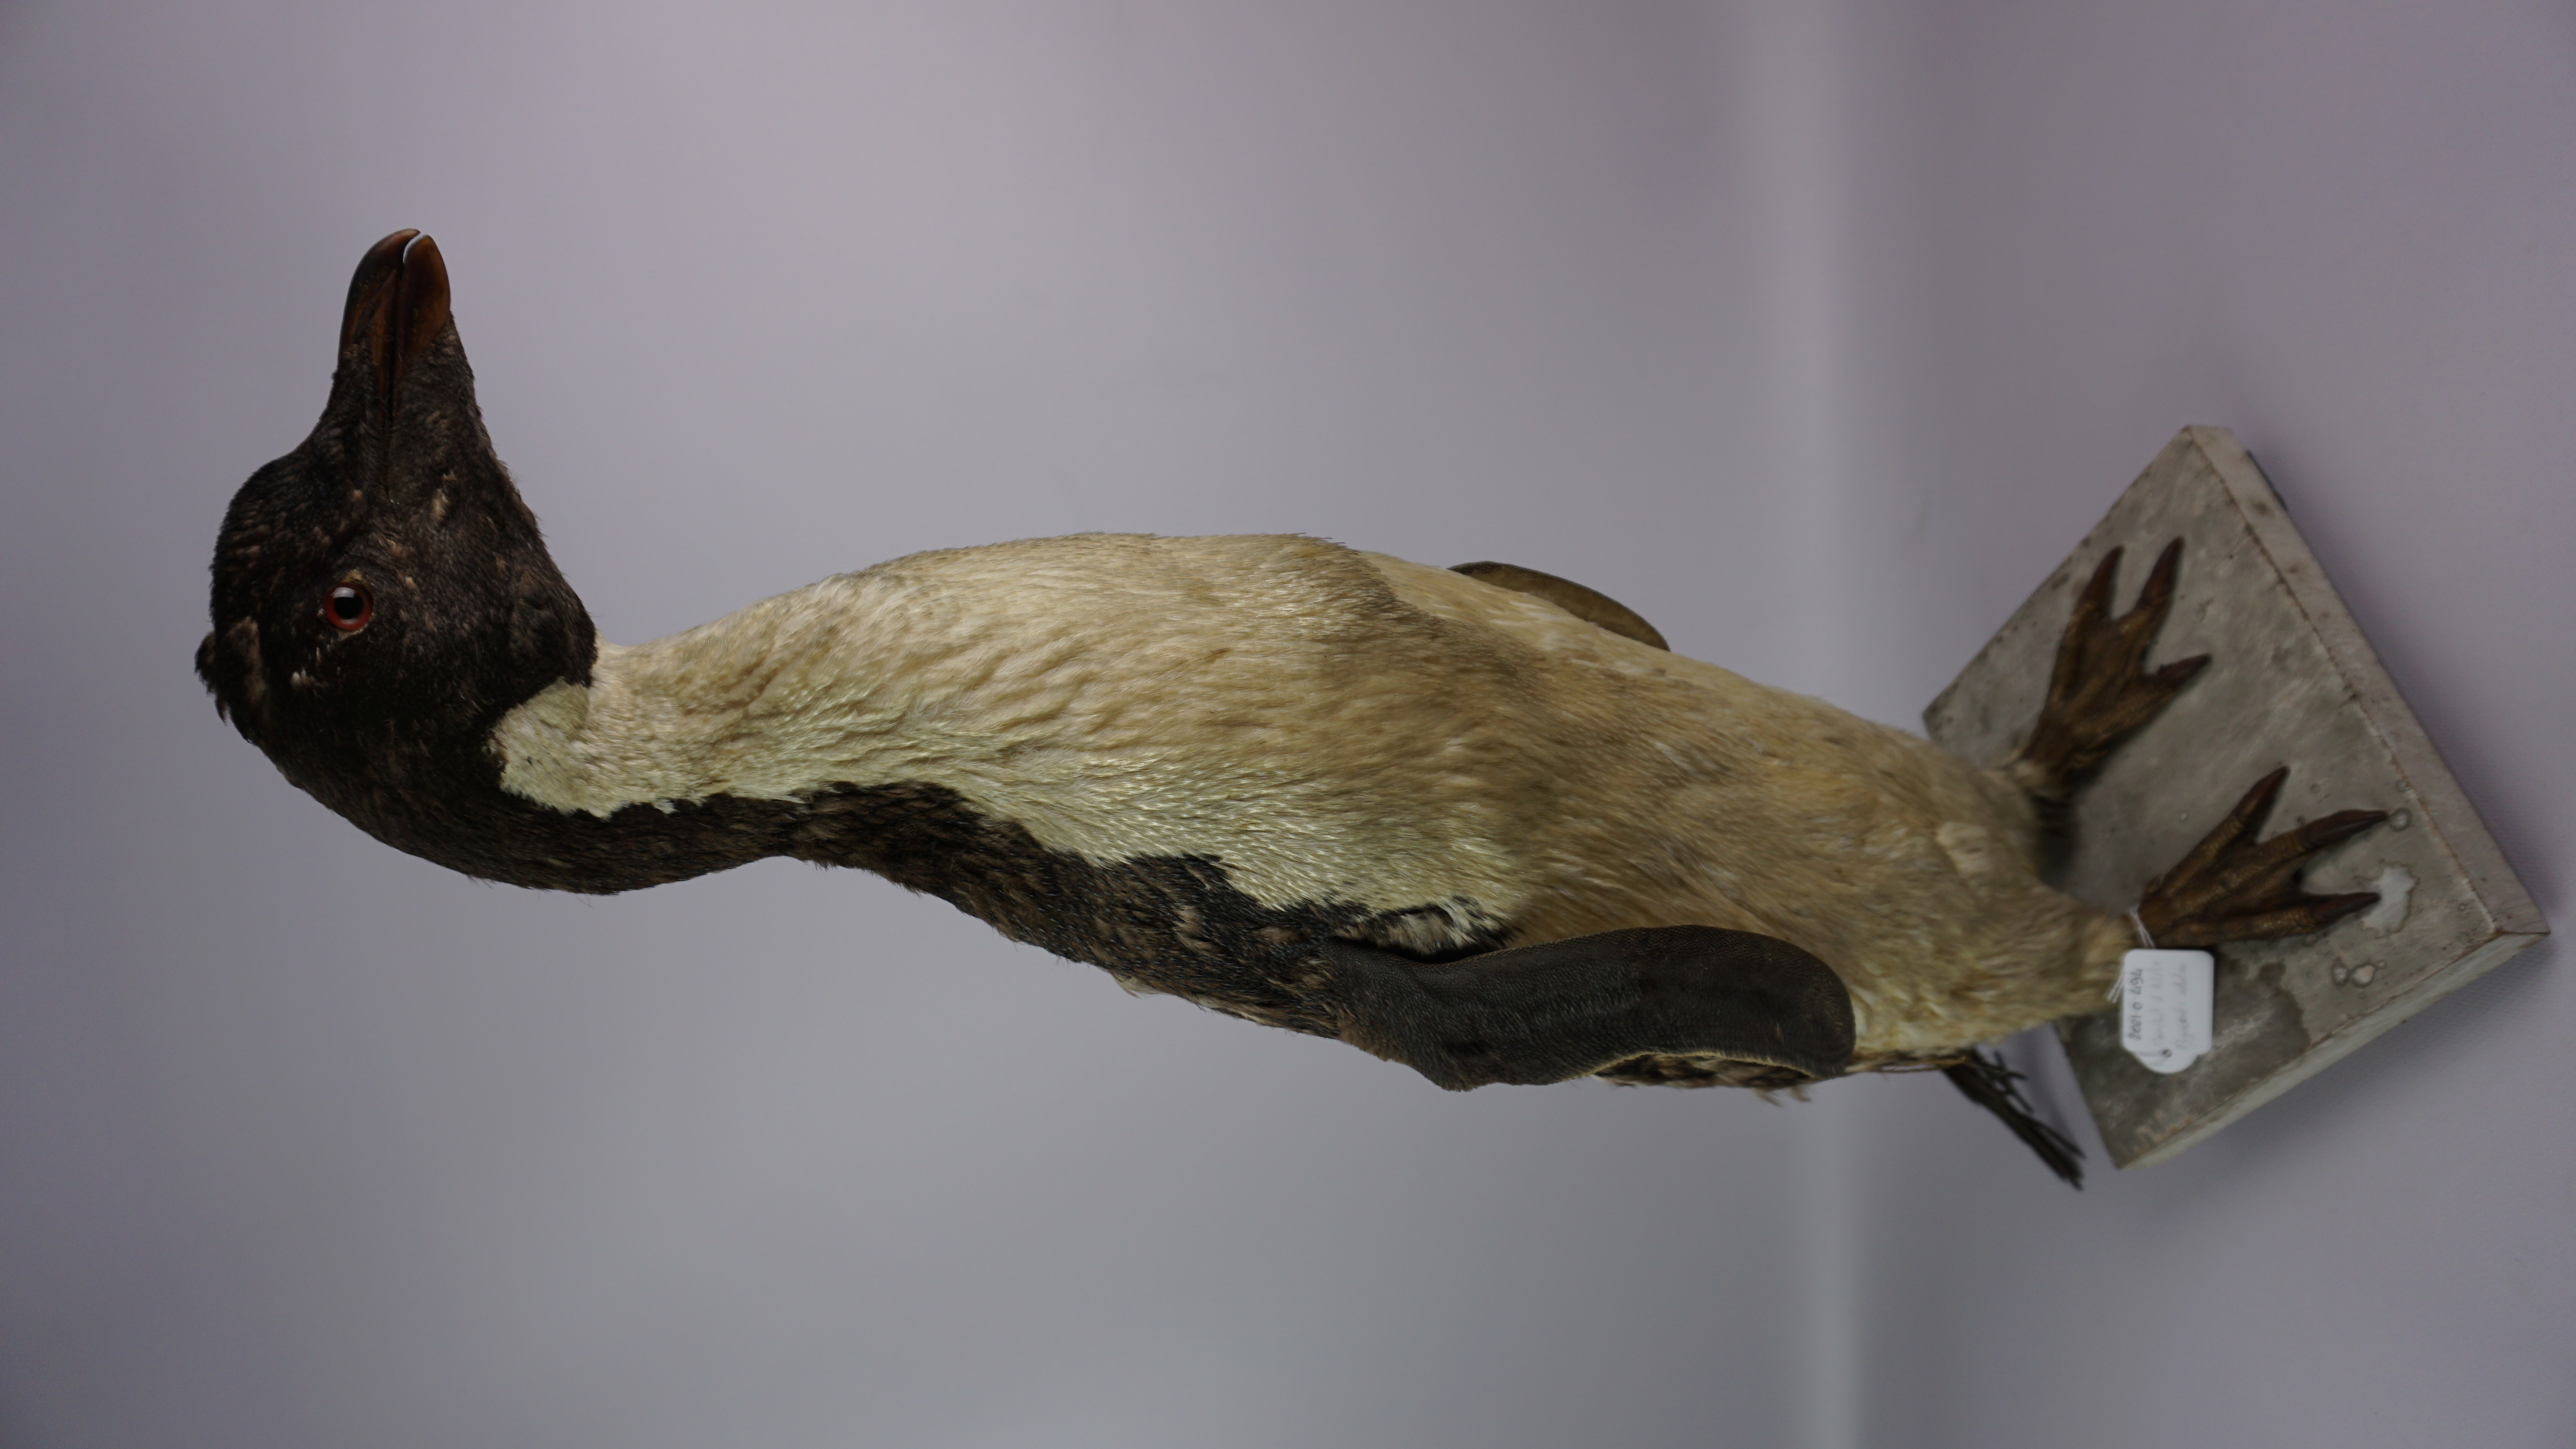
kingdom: Animalia
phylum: Chordata
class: Aves
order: Sphenisciformes
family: Spheniscidae
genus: Pygoscelis
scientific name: Pygoscelis adeliae
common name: Adelie penguin
